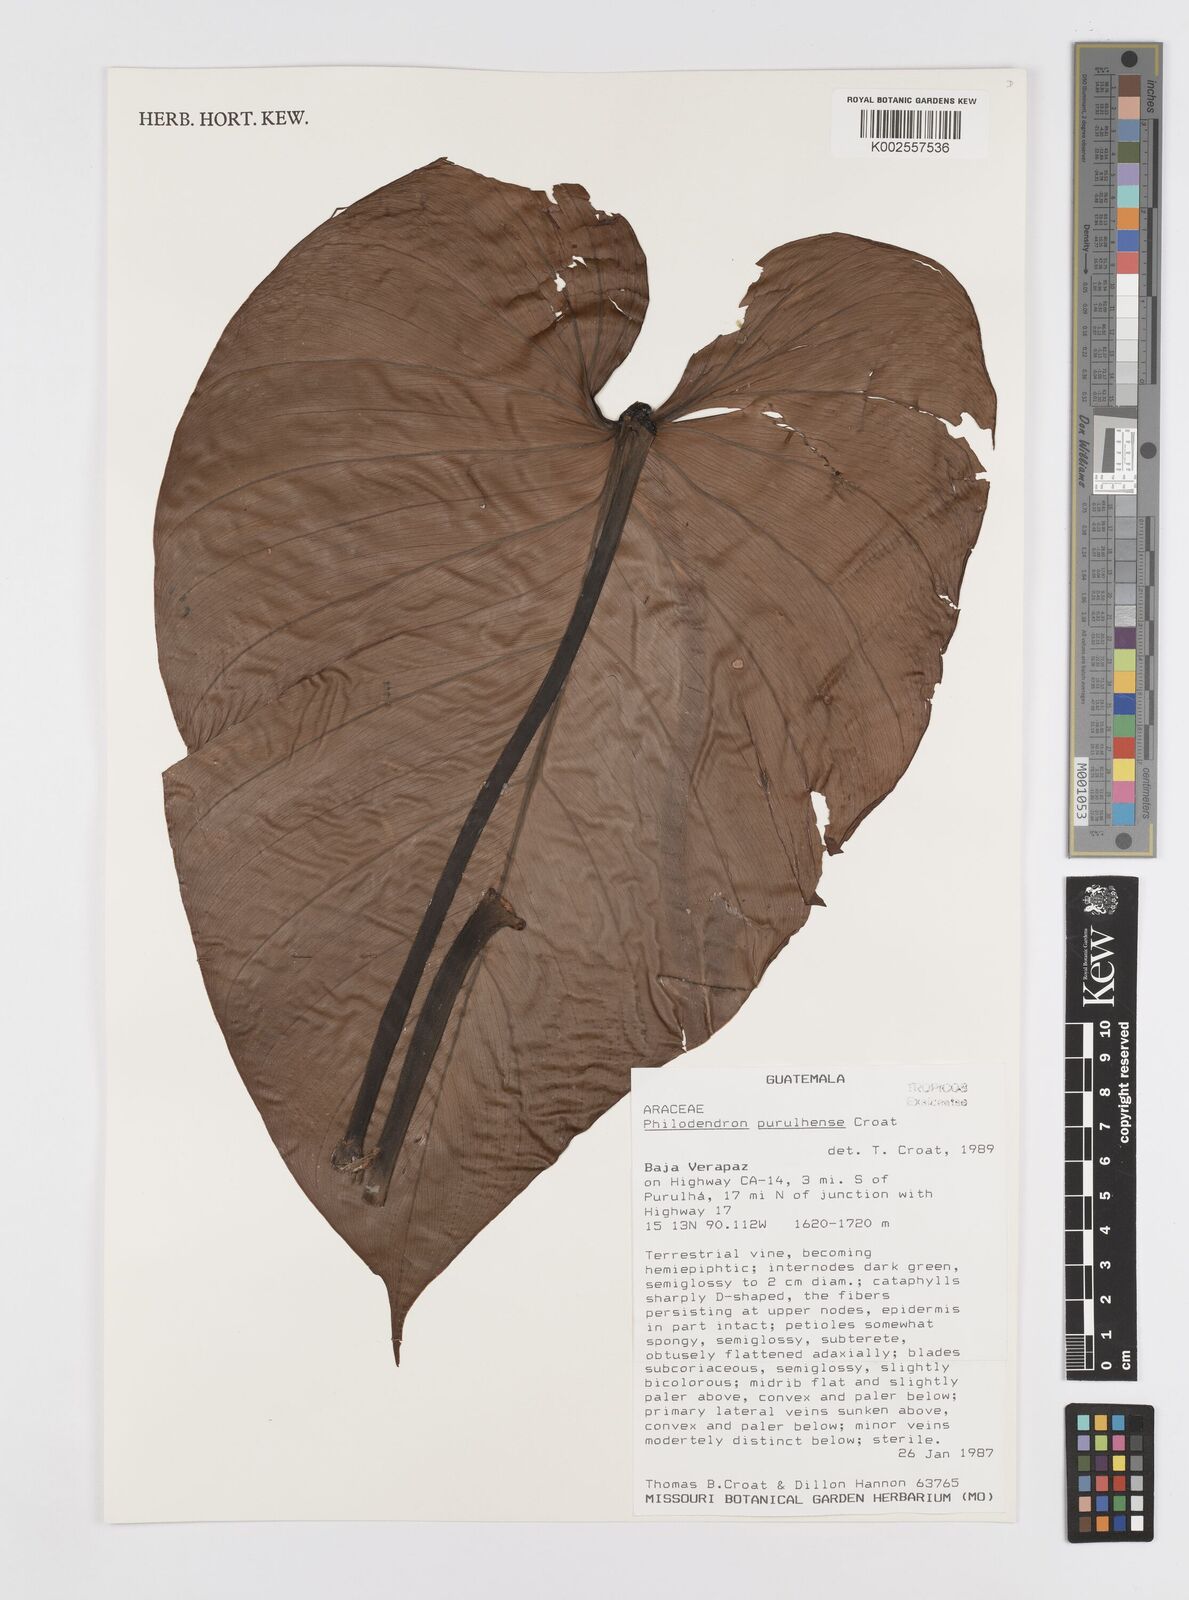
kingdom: Plantae
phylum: Tracheophyta
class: Liliopsida
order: Alismatales
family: Araceae
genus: Philodendron
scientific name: Philodendron purulhense
